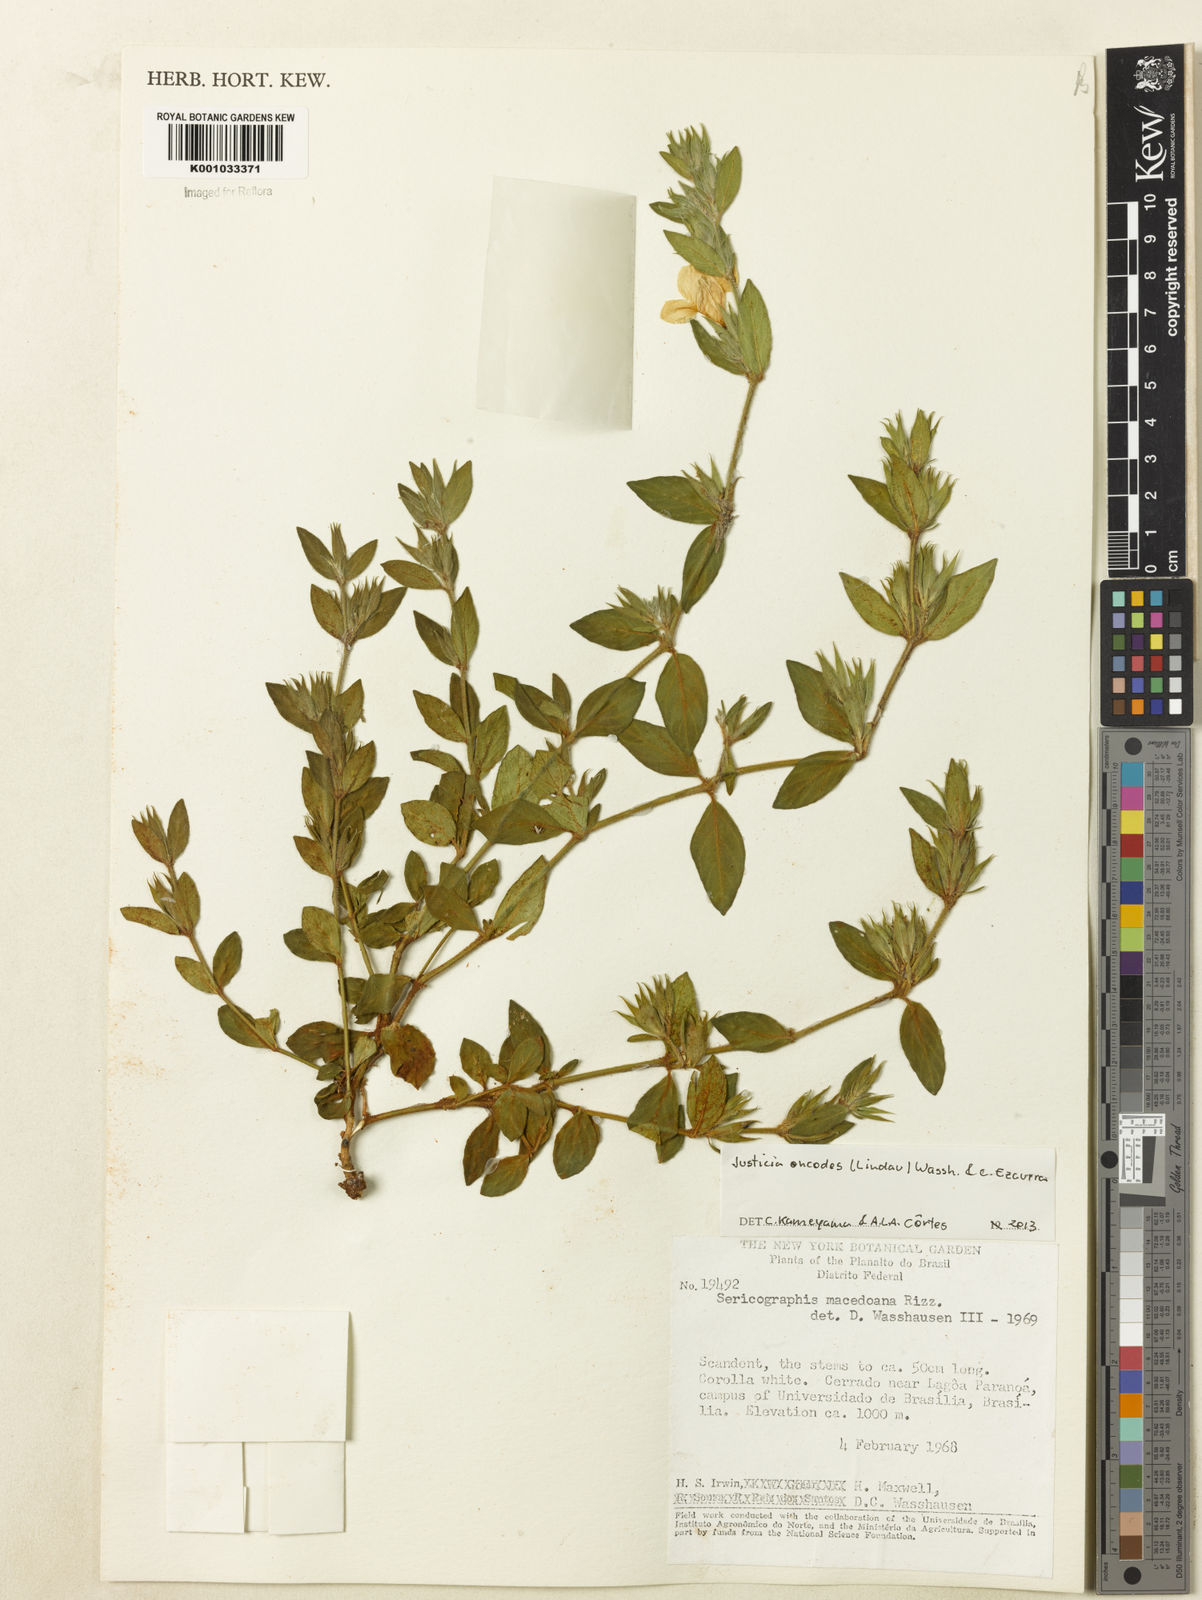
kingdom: Plantae
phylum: Tracheophyta
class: Magnoliopsida
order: Lamiales
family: Acanthaceae
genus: Justicia
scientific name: Justicia oncodes
